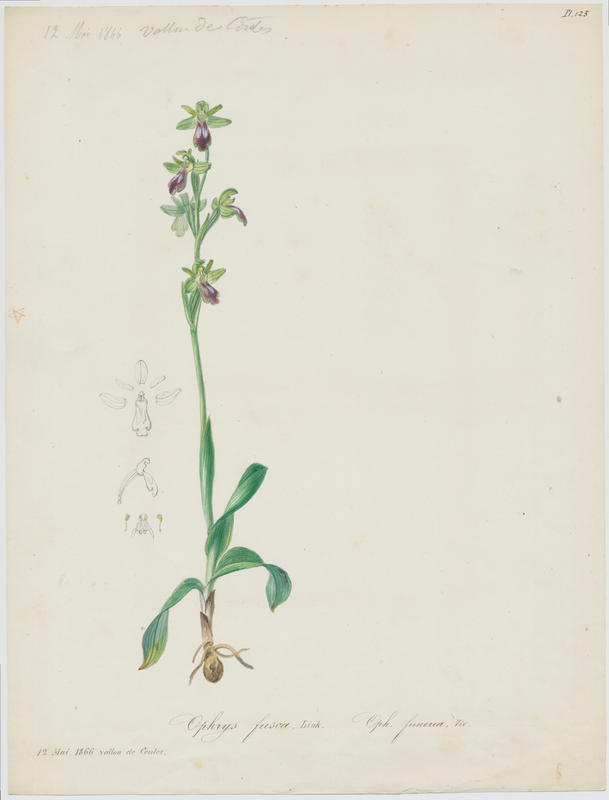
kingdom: Plantae
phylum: Tracheophyta
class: Liliopsida
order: Asparagales
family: Orchidaceae
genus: Ophrys
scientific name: Ophrys fusca
